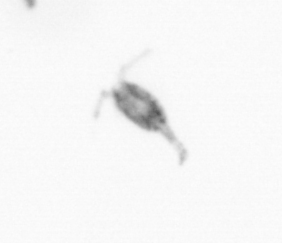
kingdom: Animalia
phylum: Arthropoda
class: Copepoda
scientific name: Copepoda
